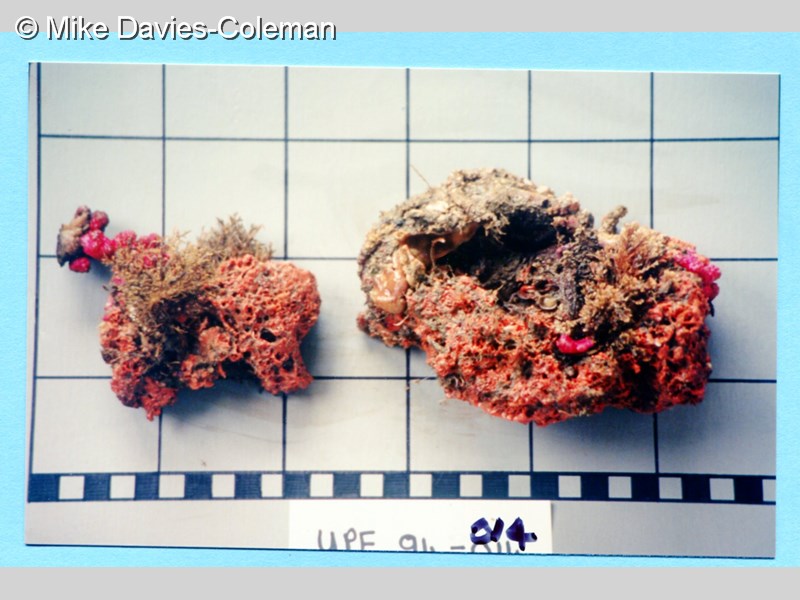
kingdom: Animalia
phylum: Porifera
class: Demospongiae
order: Poecilosclerida
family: Chondropsidae
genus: Strongylacidon
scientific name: Strongylacidon
